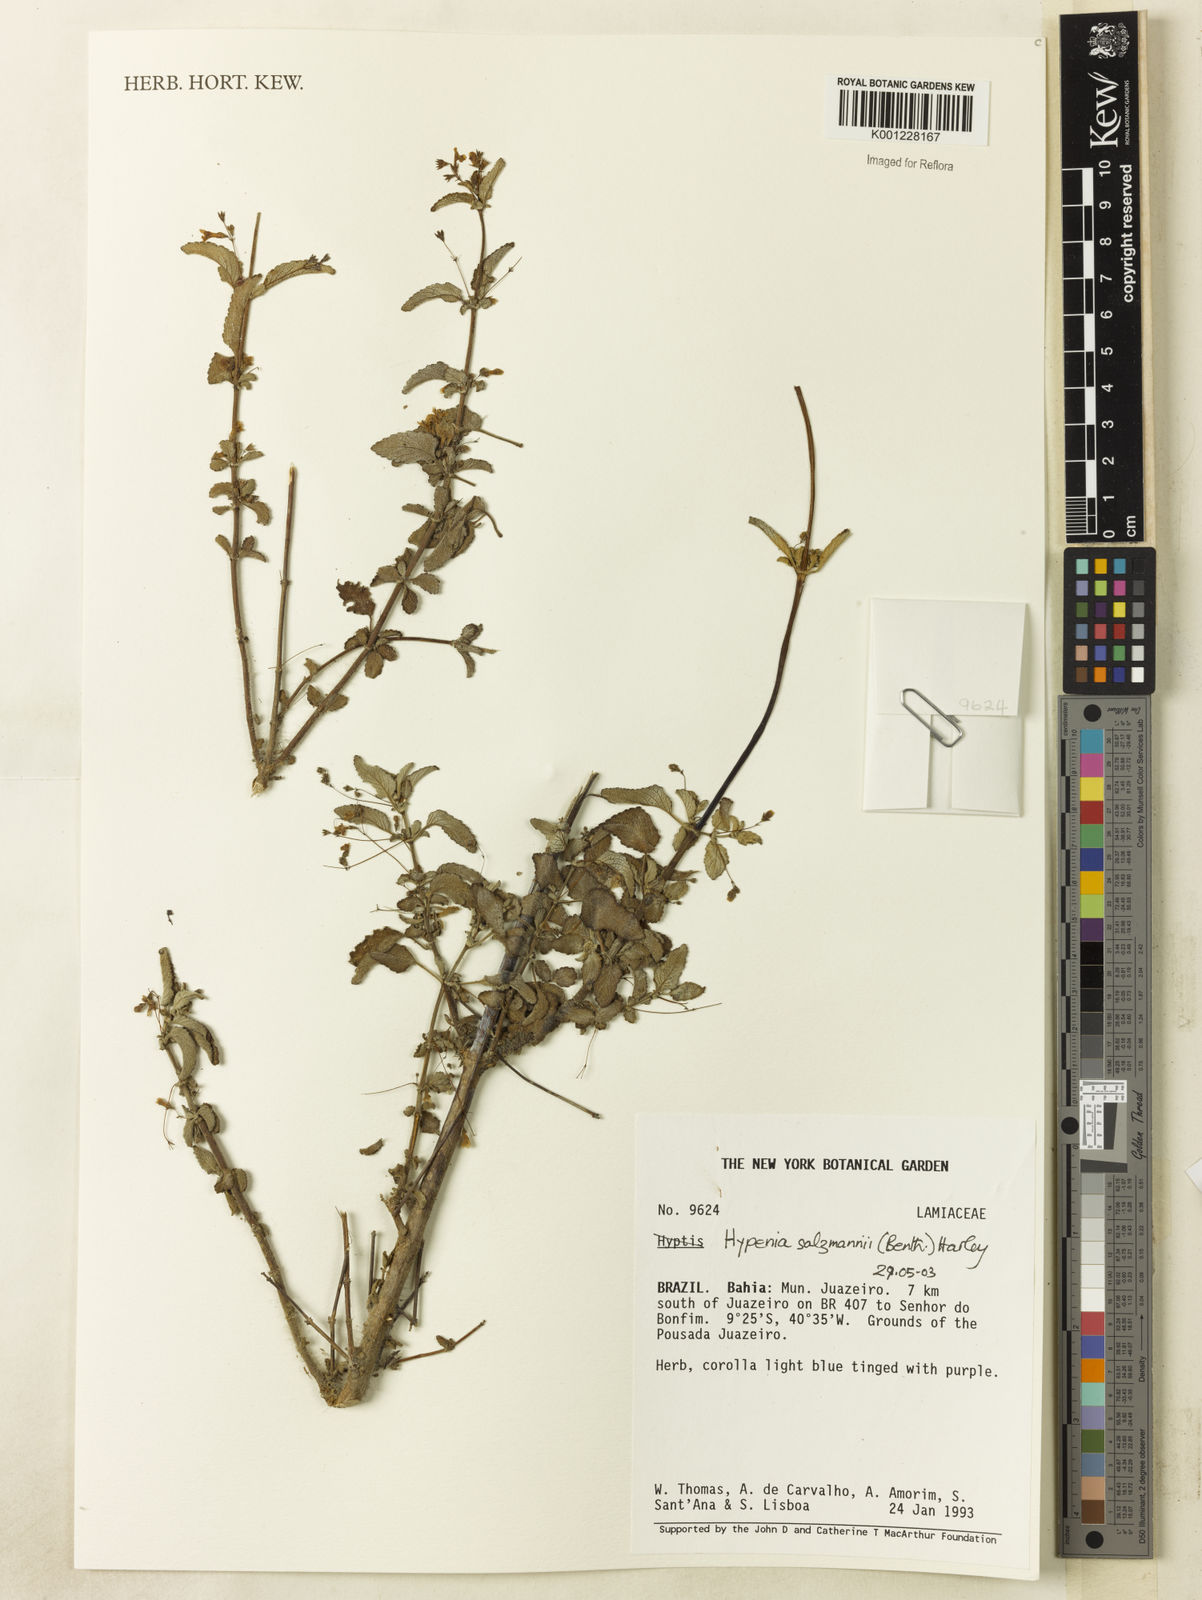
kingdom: Plantae
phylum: Tracheophyta
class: Magnoliopsida
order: Lamiales
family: Lamiaceae
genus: Hypenia
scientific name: Hypenia salzmannii
